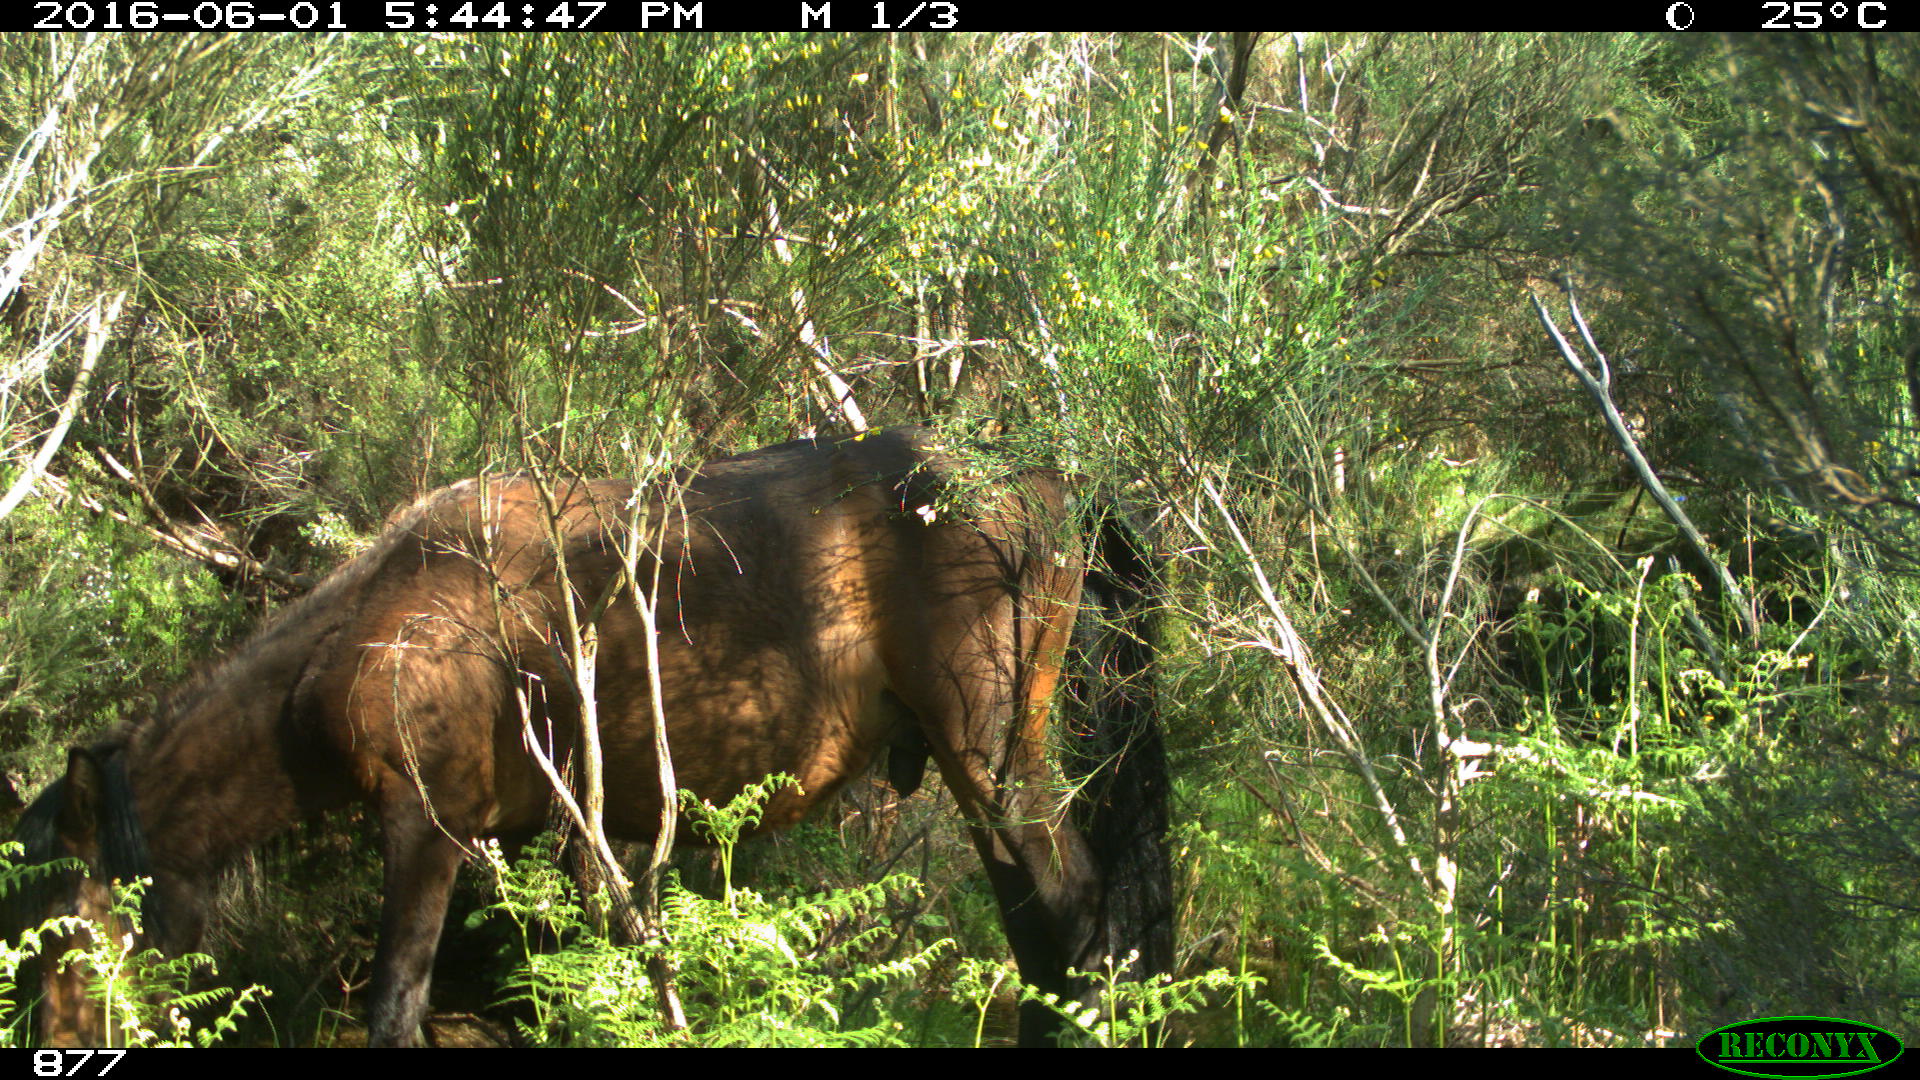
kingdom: Animalia
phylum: Chordata
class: Mammalia
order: Perissodactyla
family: Equidae
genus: Equus
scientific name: Equus caballus
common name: Horse
